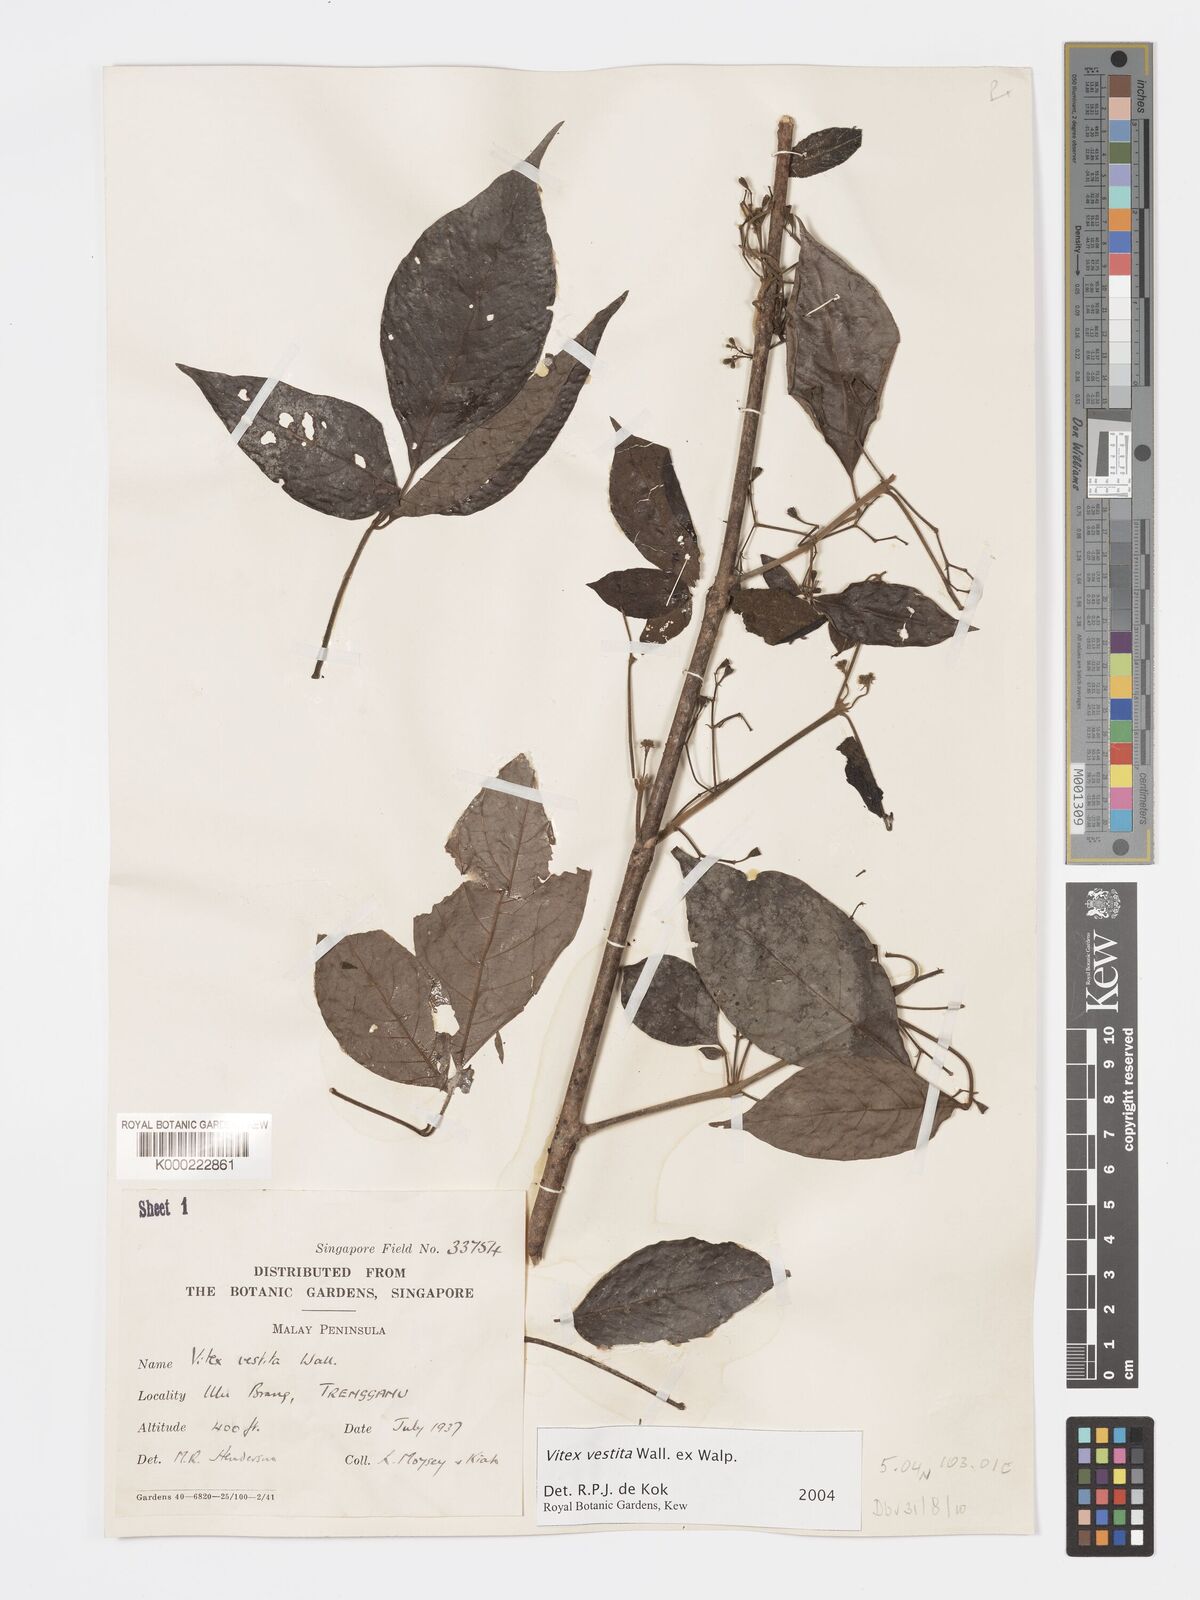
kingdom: Plantae
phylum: Tracheophyta
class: Magnoliopsida
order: Lamiales
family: Lamiaceae
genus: Vitex
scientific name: Vitex vestita
